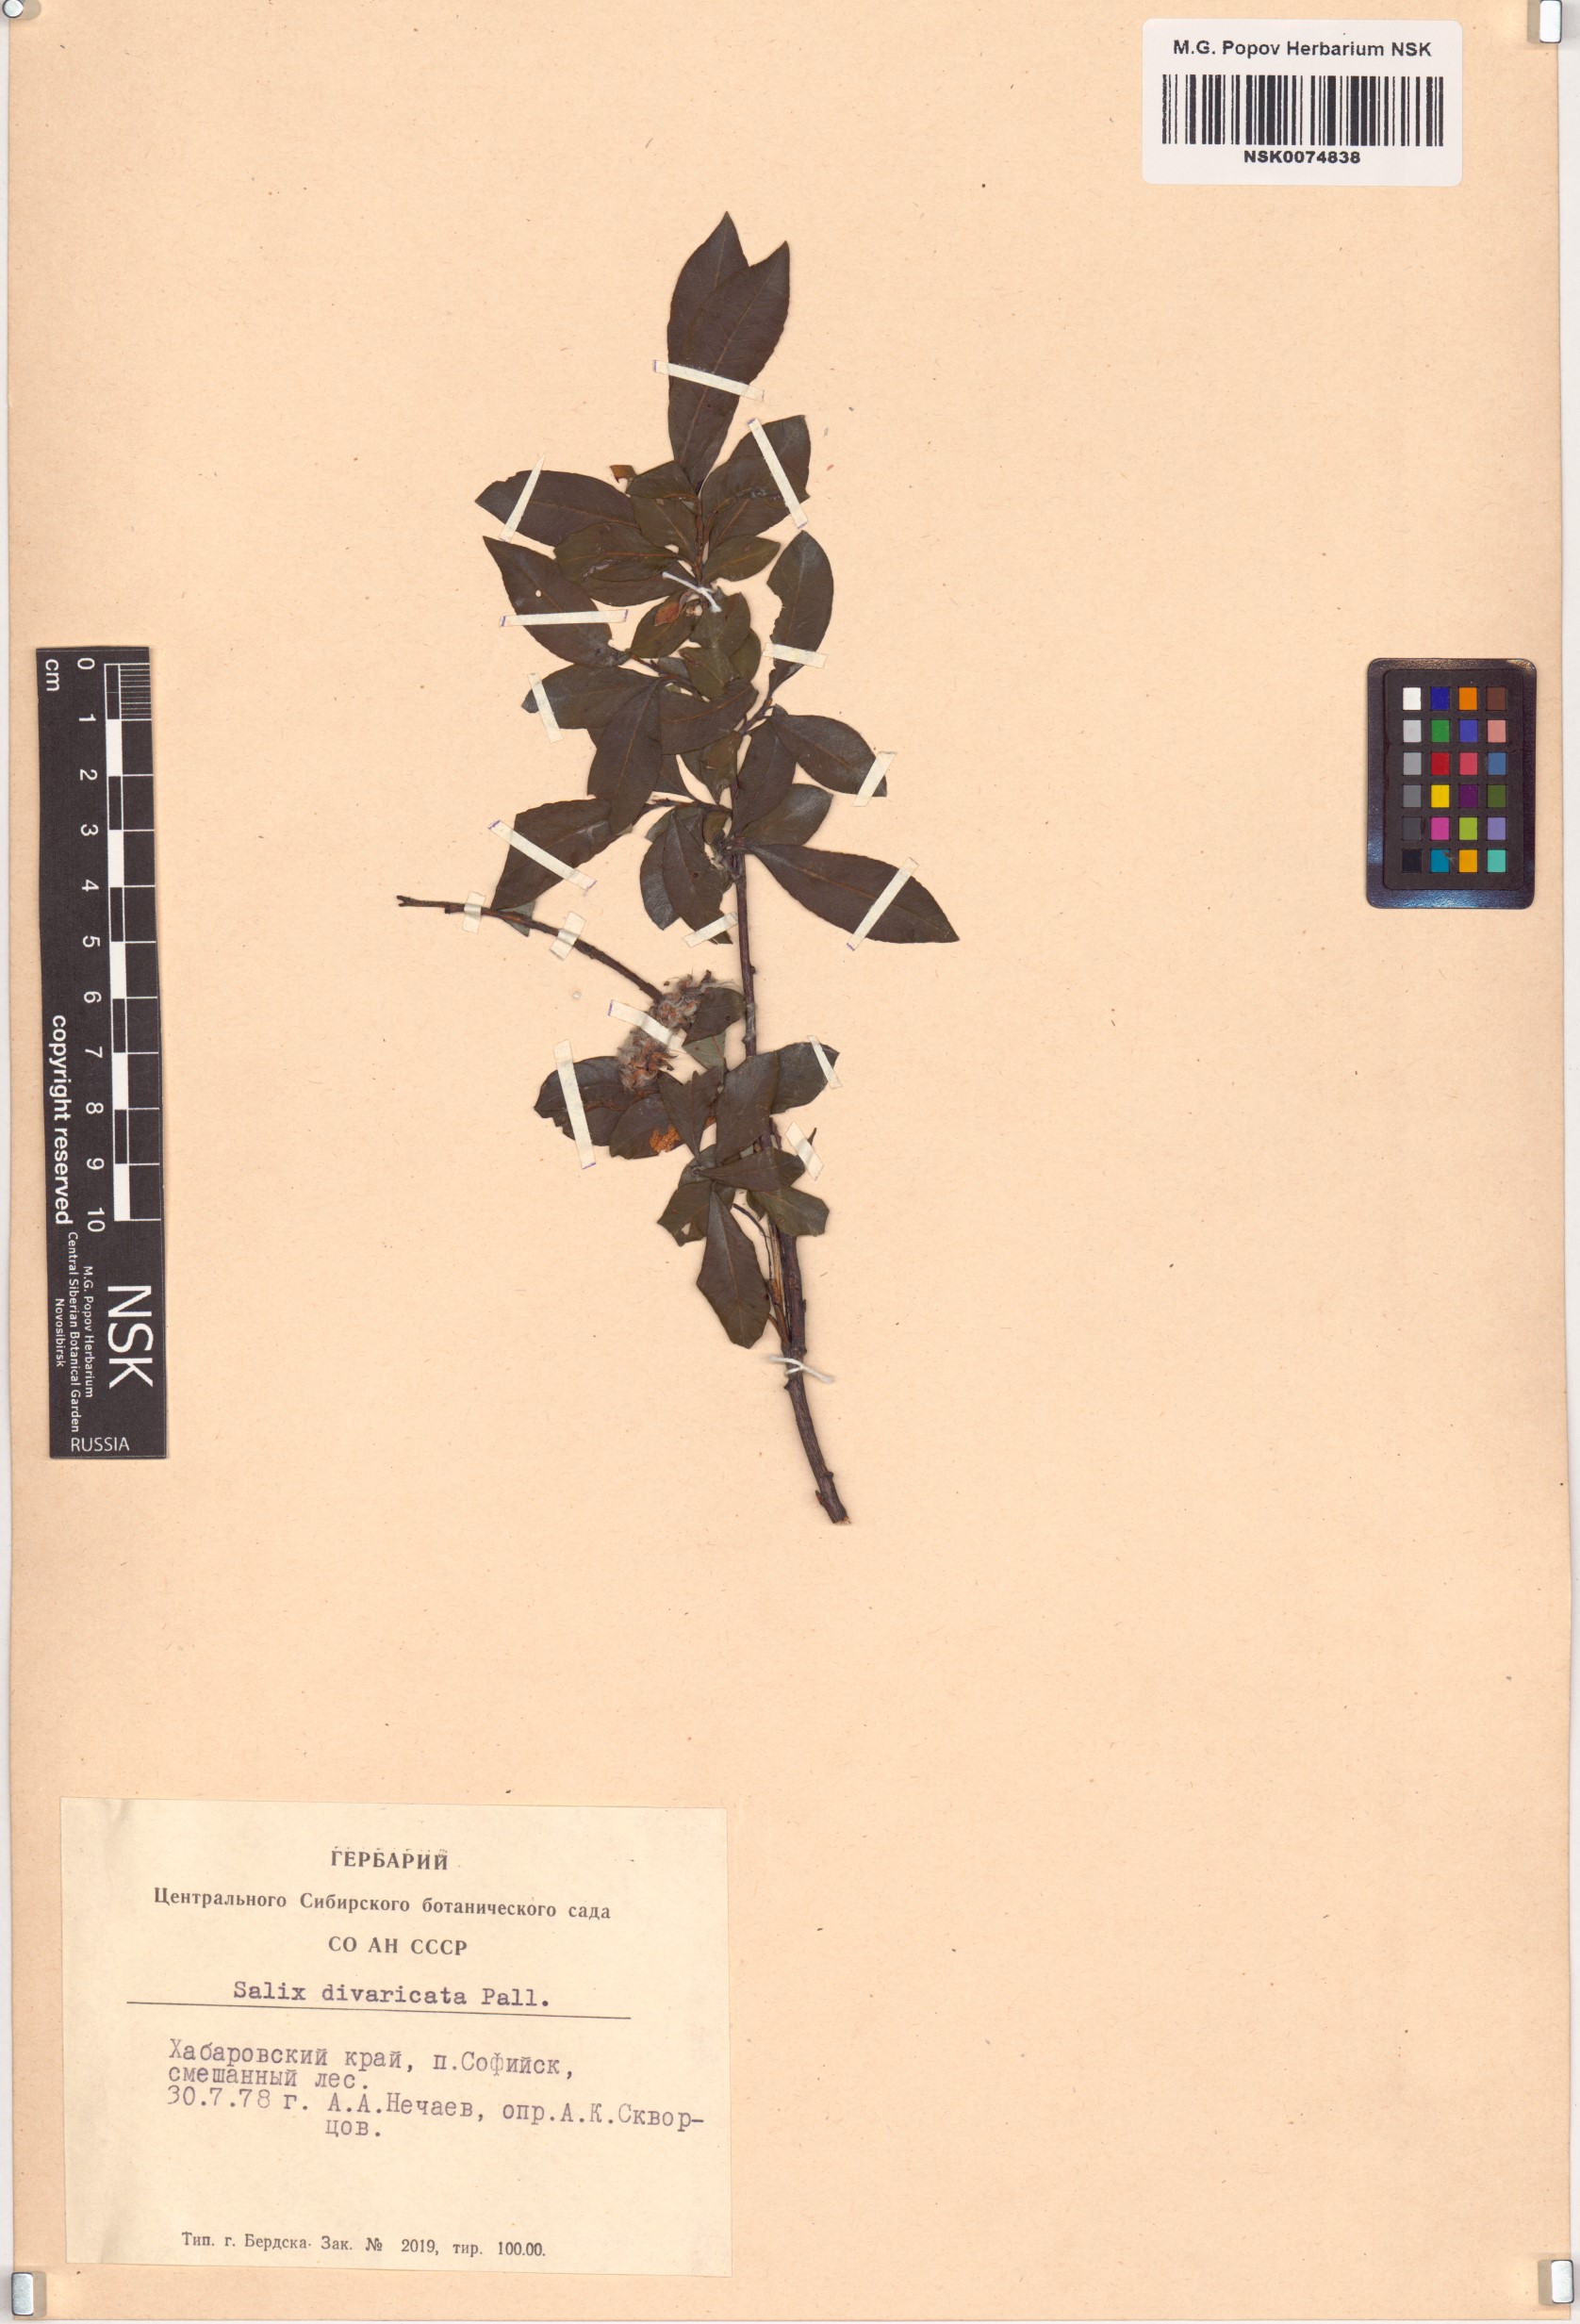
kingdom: Plantae
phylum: Tracheophyta
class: Magnoliopsida
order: Malpighiales
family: Salicaceae
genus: Salix
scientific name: Salix divaricata
